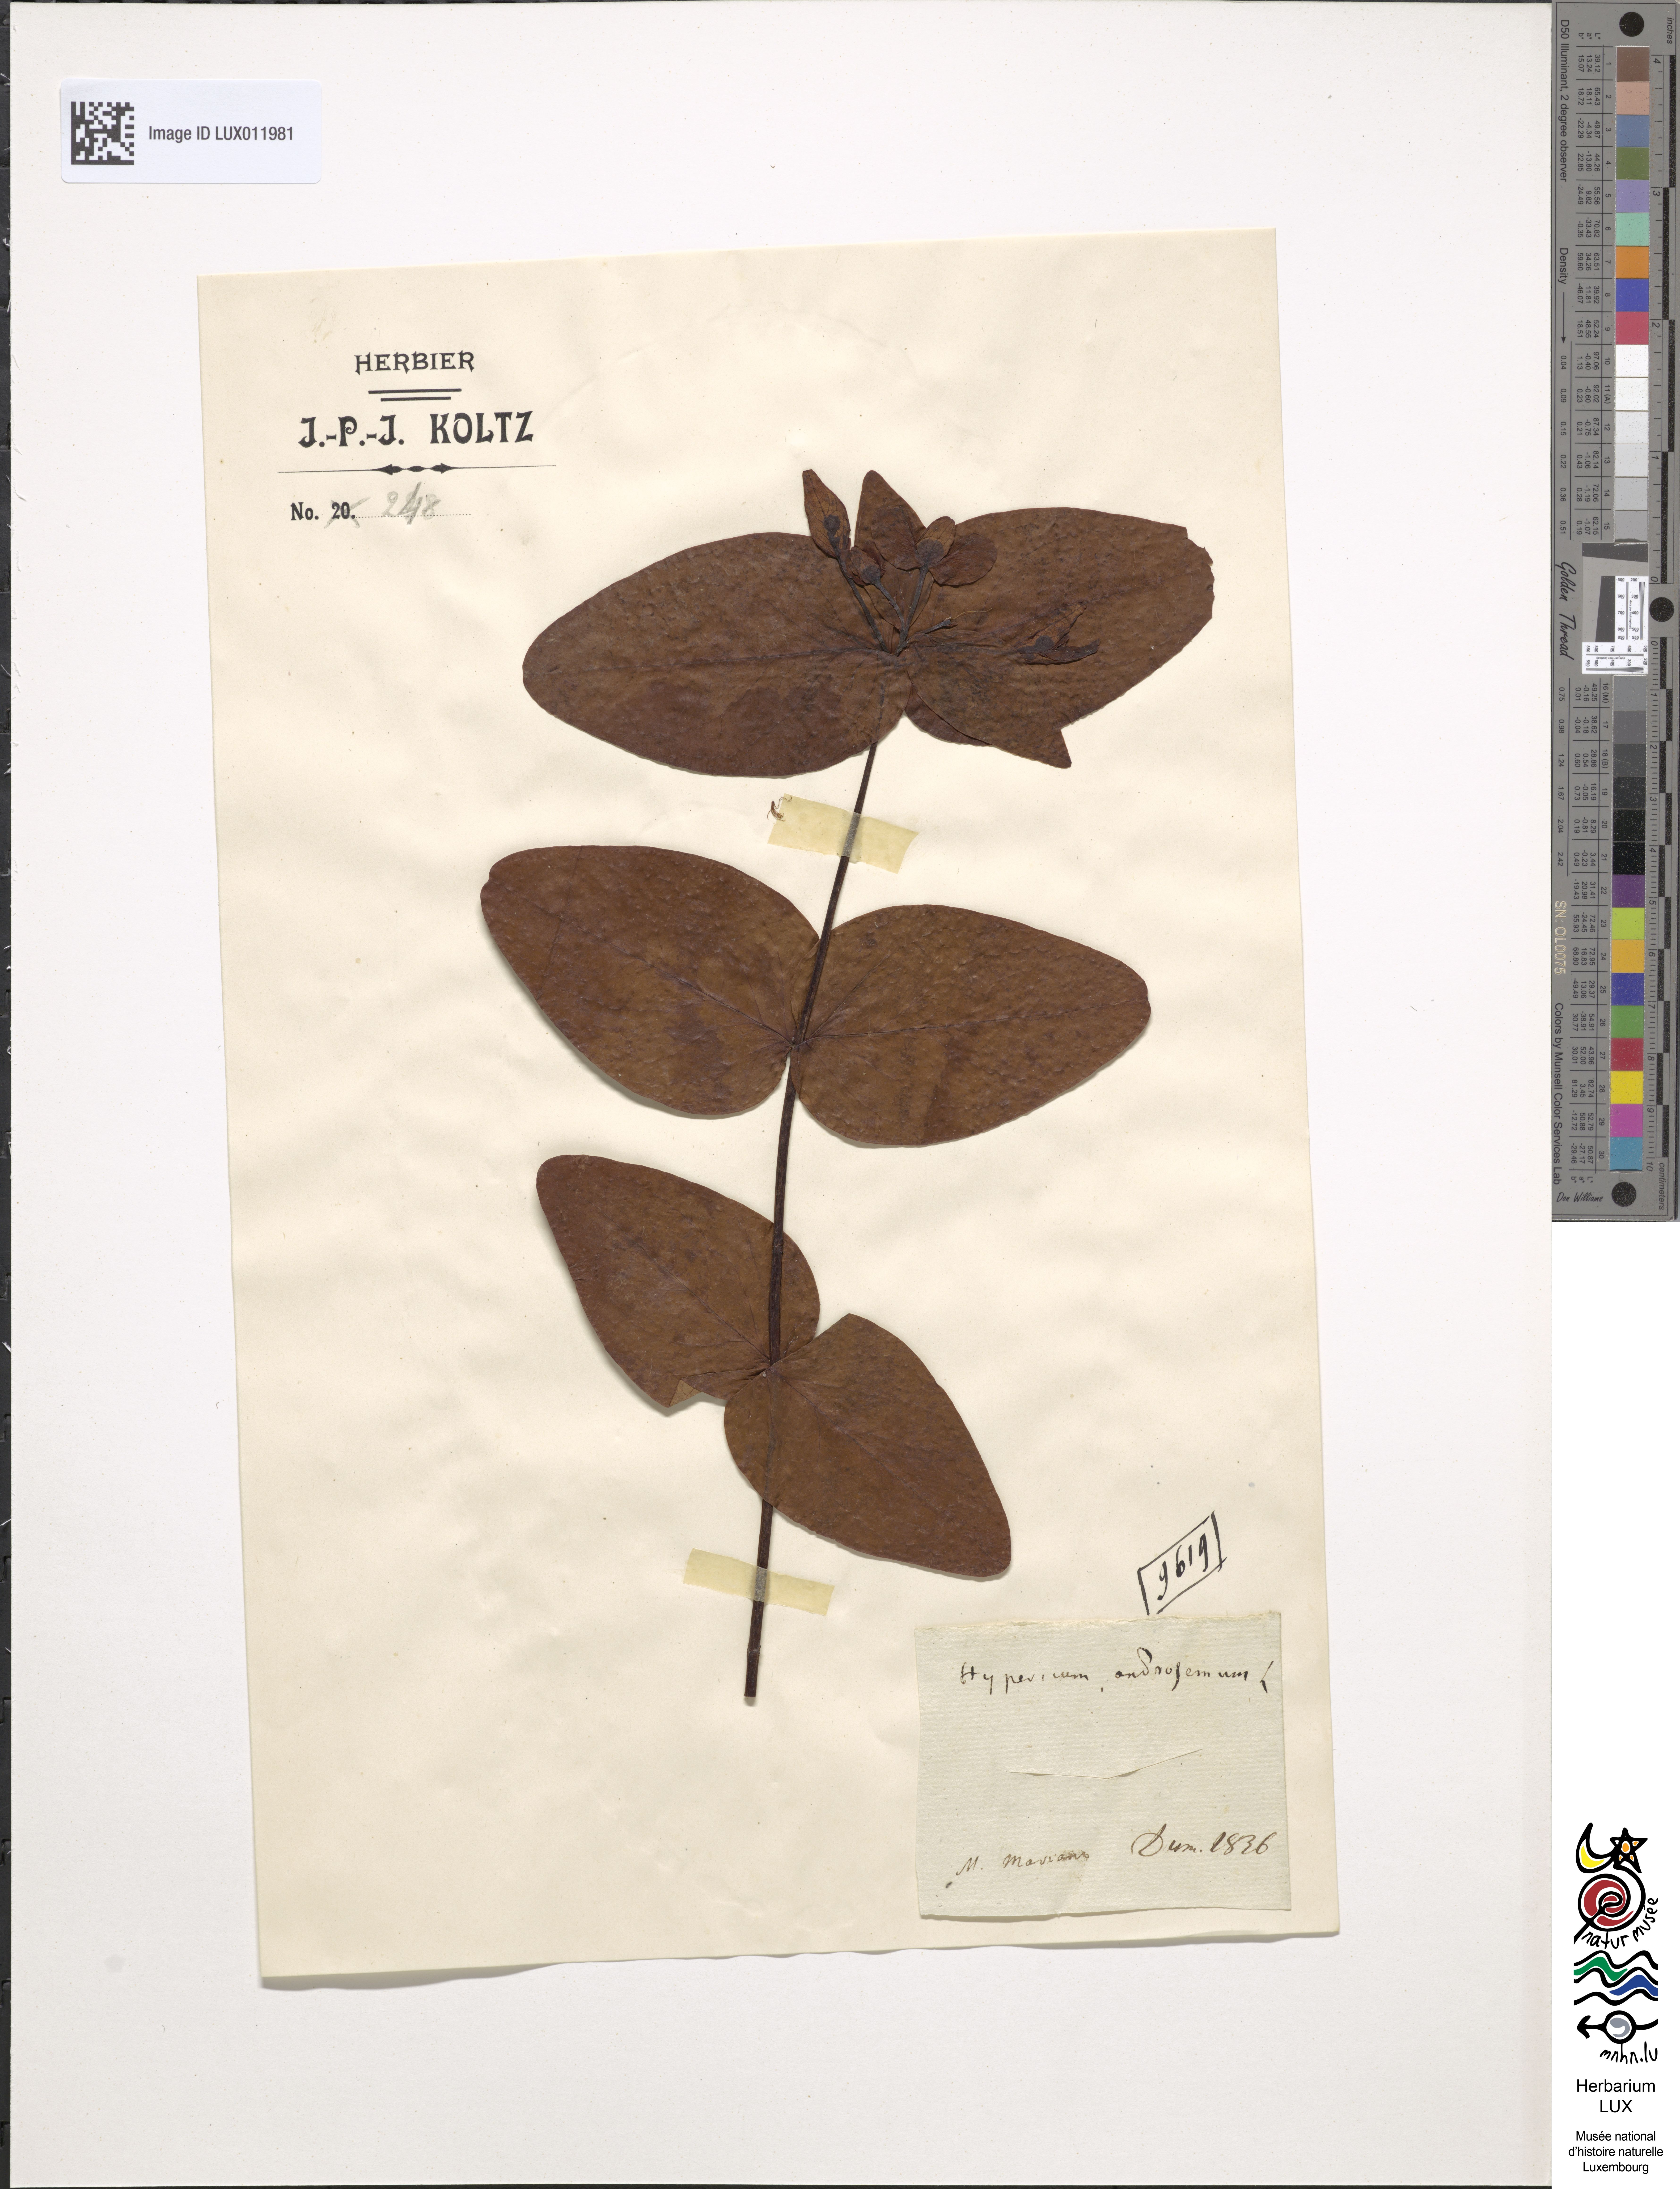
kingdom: Plantae
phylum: Tracheophyta
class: Magnoliopsida
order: Malpighiales
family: Hypericaceae
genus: Hypericum
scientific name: Hypericum androsaemum
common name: Sweet-amber
